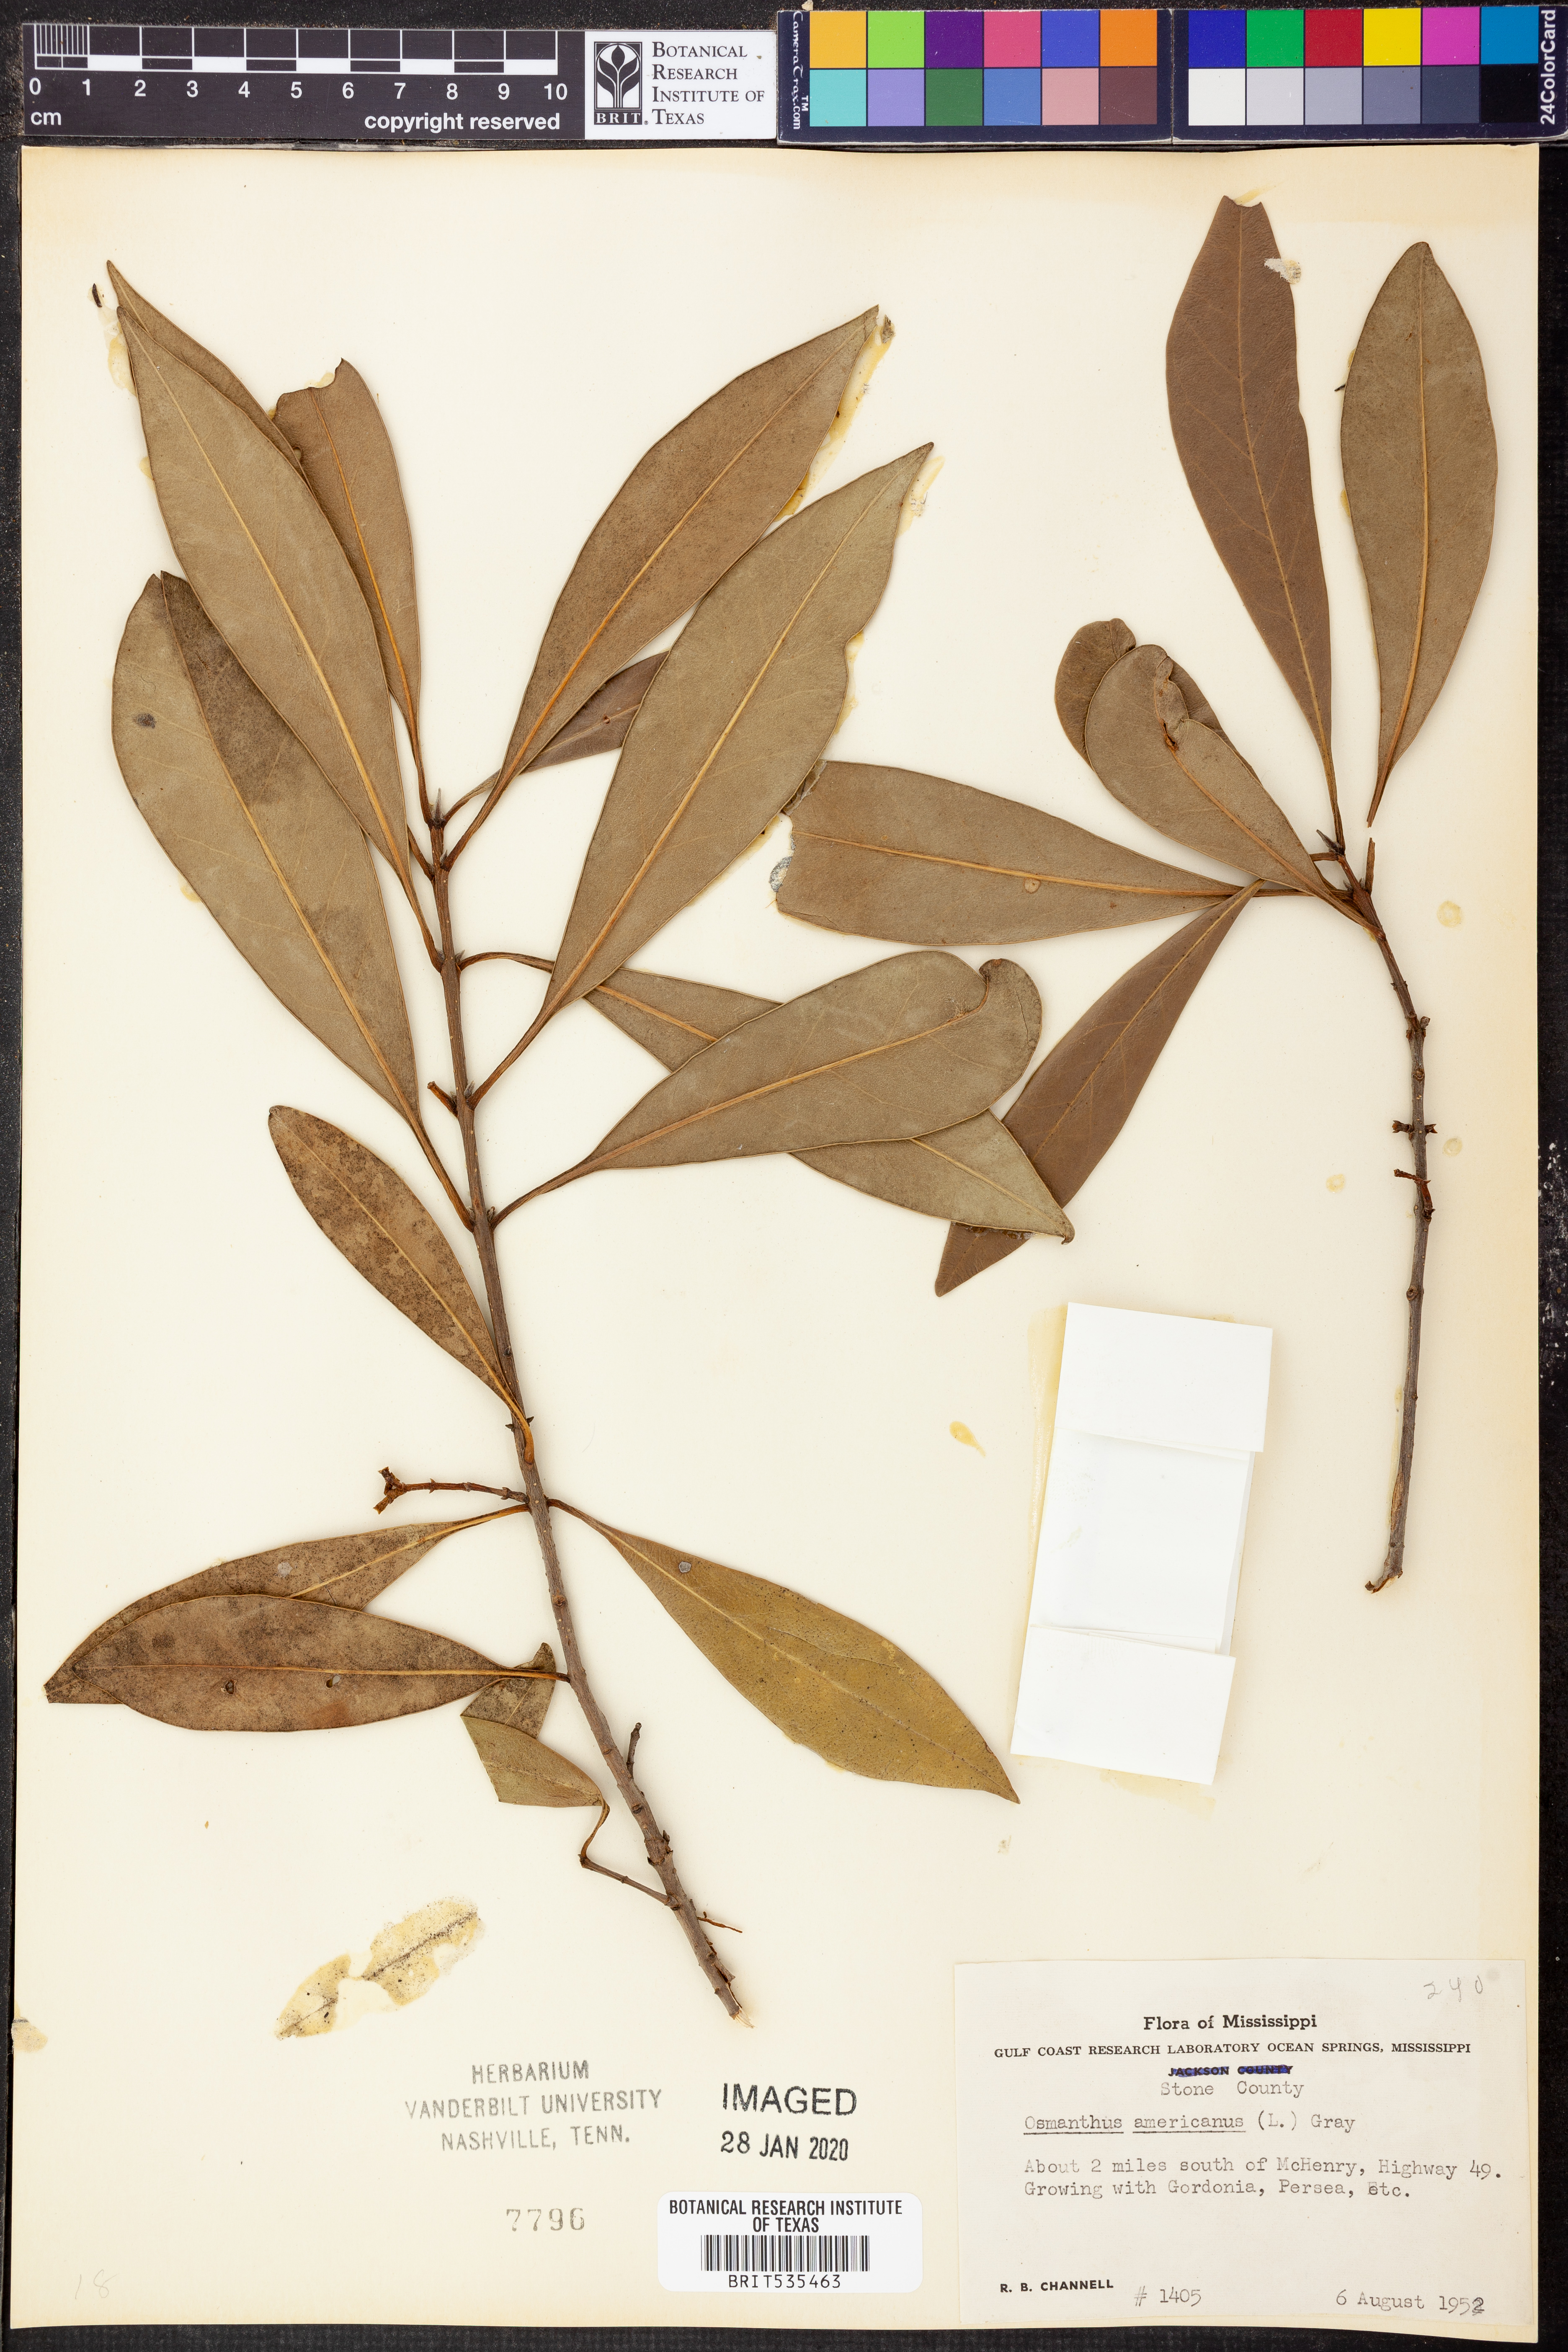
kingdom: Plantae
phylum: Tracheophyta
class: Magnoliopsida
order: Lamiales
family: Oleaceae
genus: Osmanthus
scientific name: Osmanthus americanus
